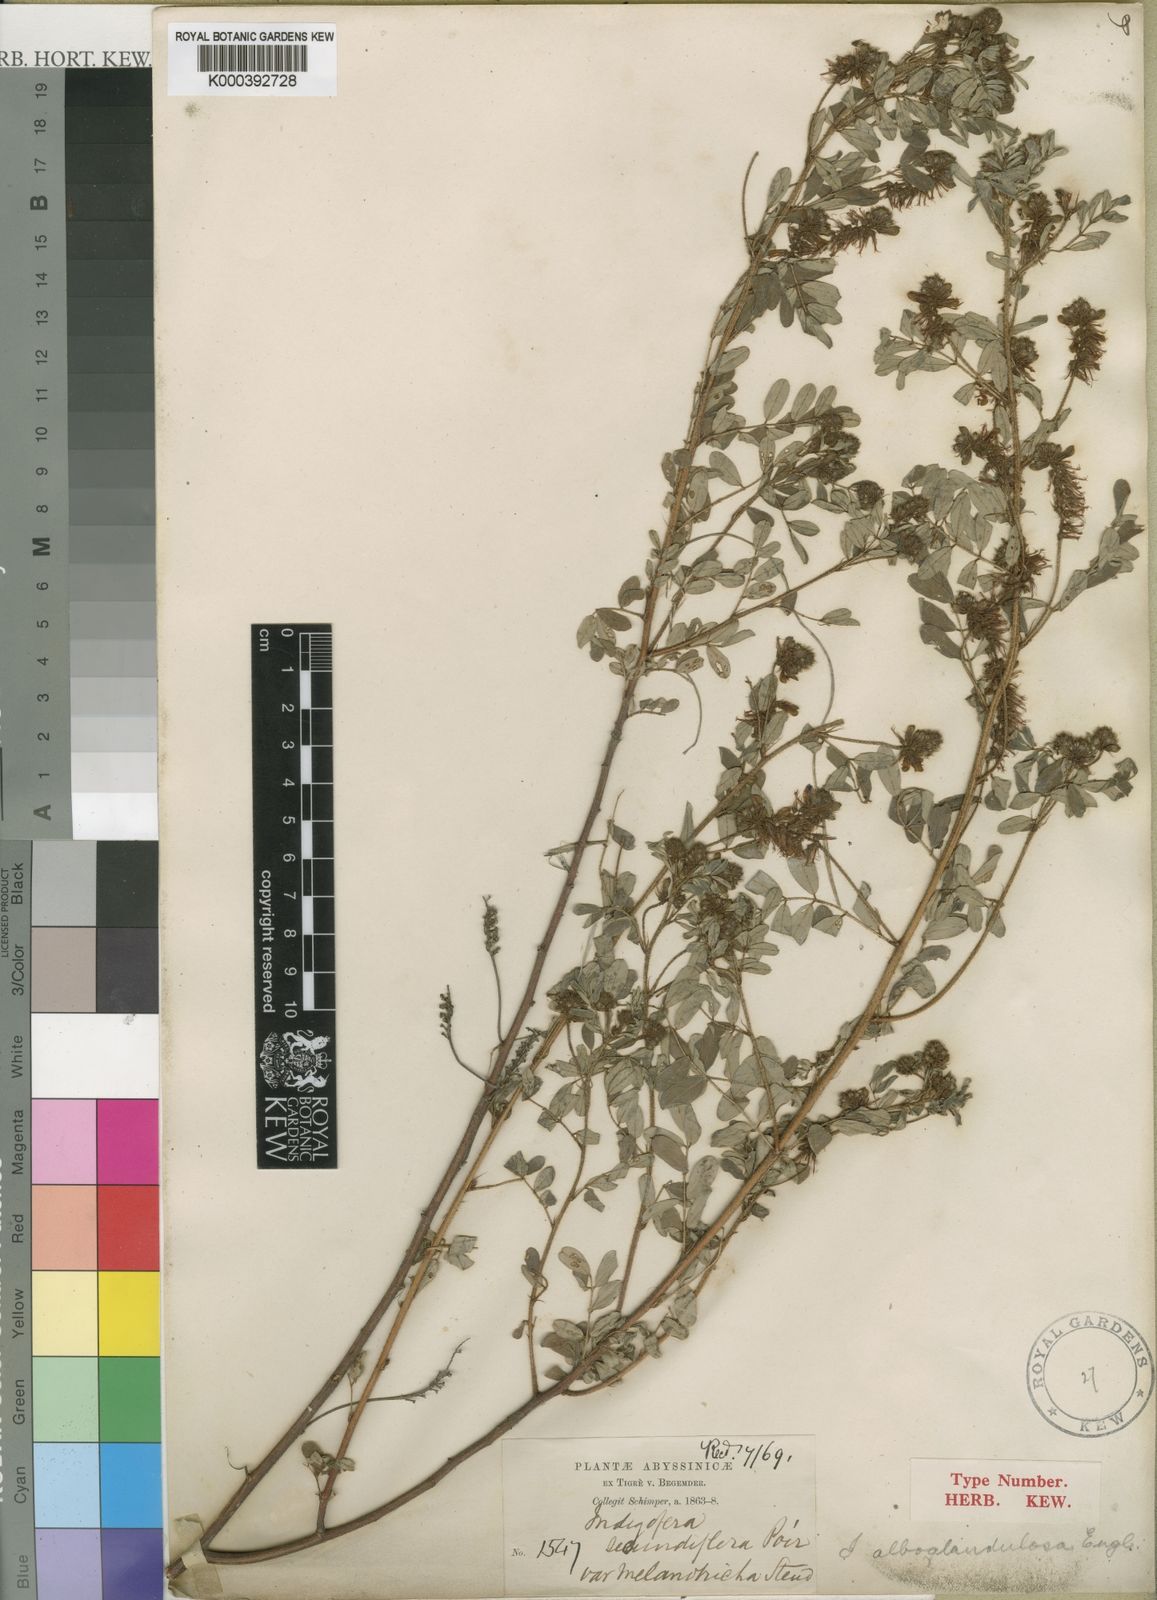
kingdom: Plantae
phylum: Tracheophyta
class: Magnoliopsida
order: Fabales
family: Fabaceae
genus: Indigofera
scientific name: Indigofera atriceps
